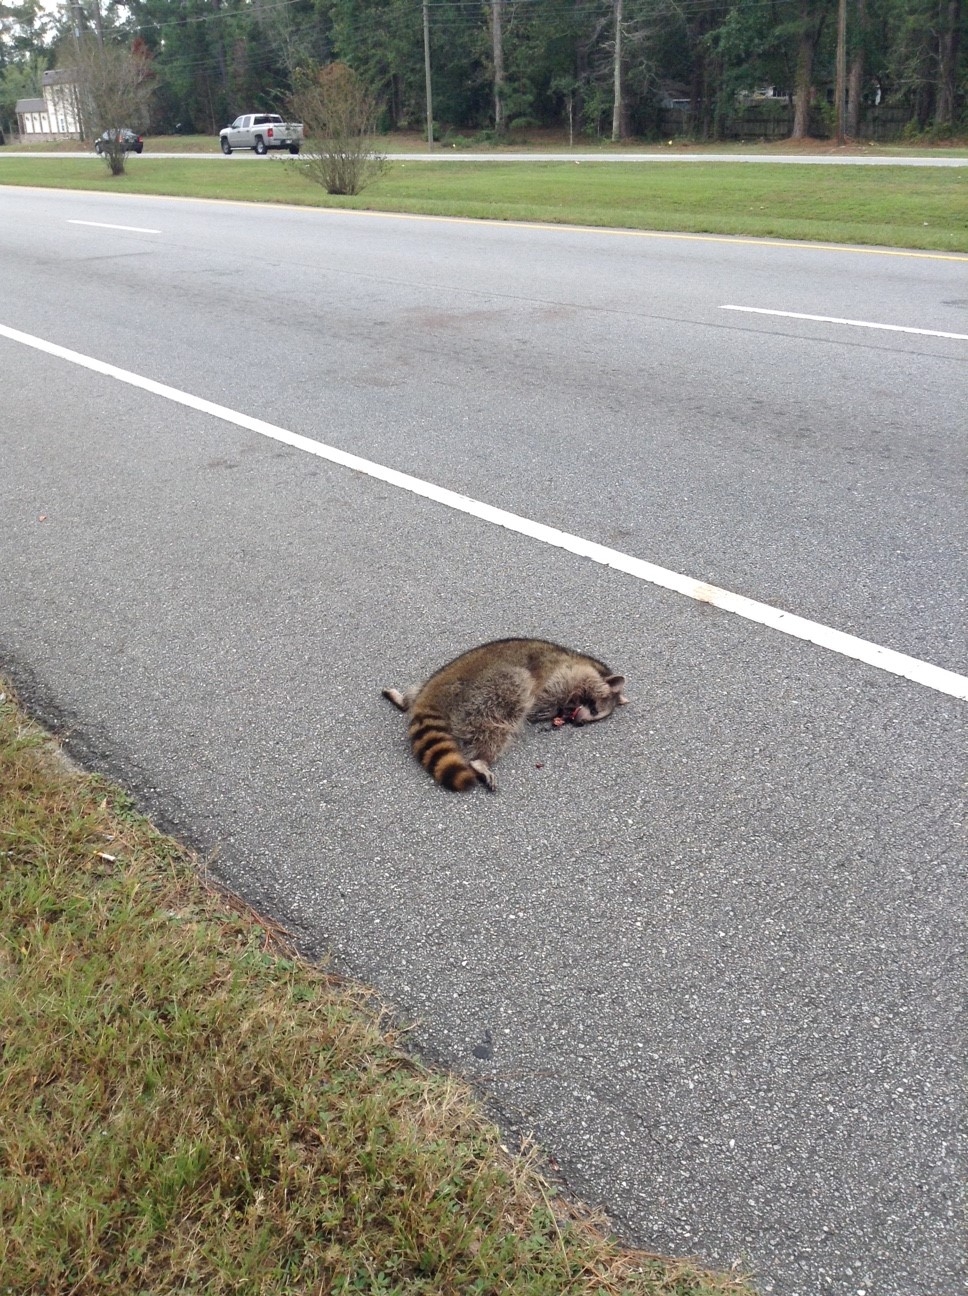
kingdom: Animalia
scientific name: Animalia
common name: NA
